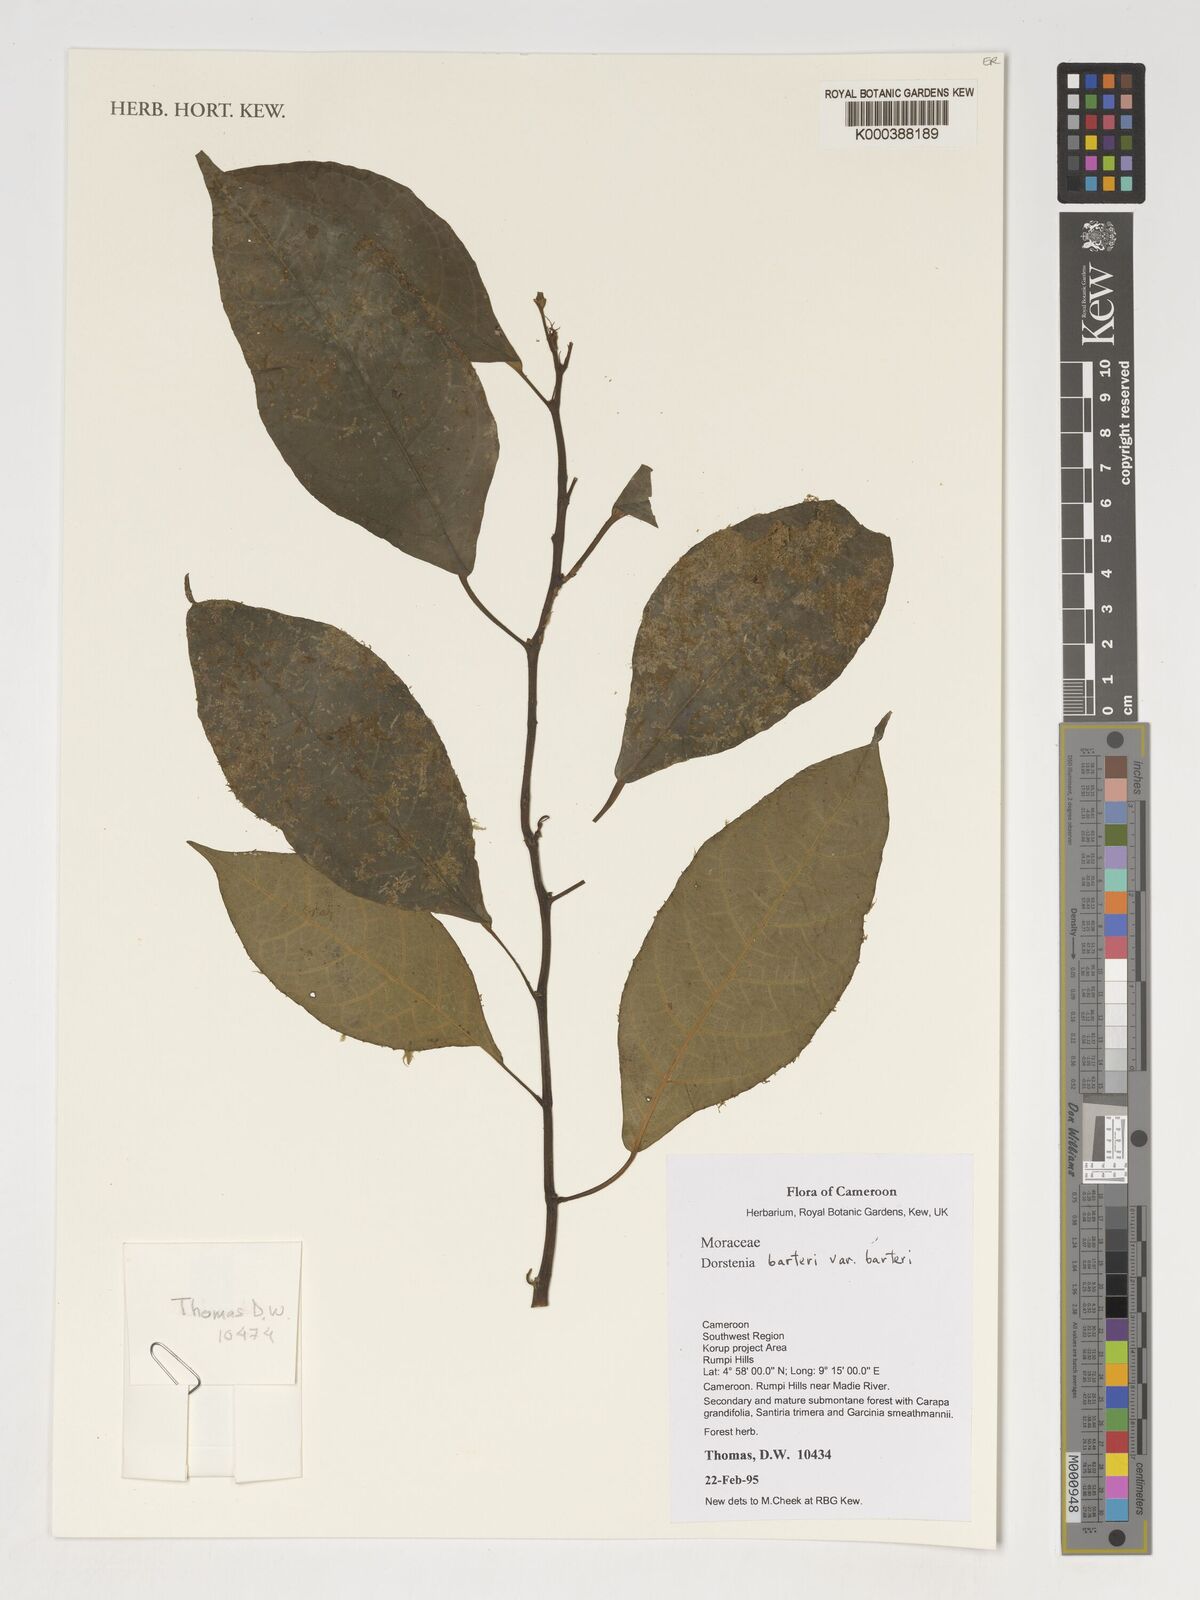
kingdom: Plantae
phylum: Tracheophyta
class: Magnoliopsida
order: Rosales
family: Moraceae
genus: Dorstenia
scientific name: Dorstenia barteri
